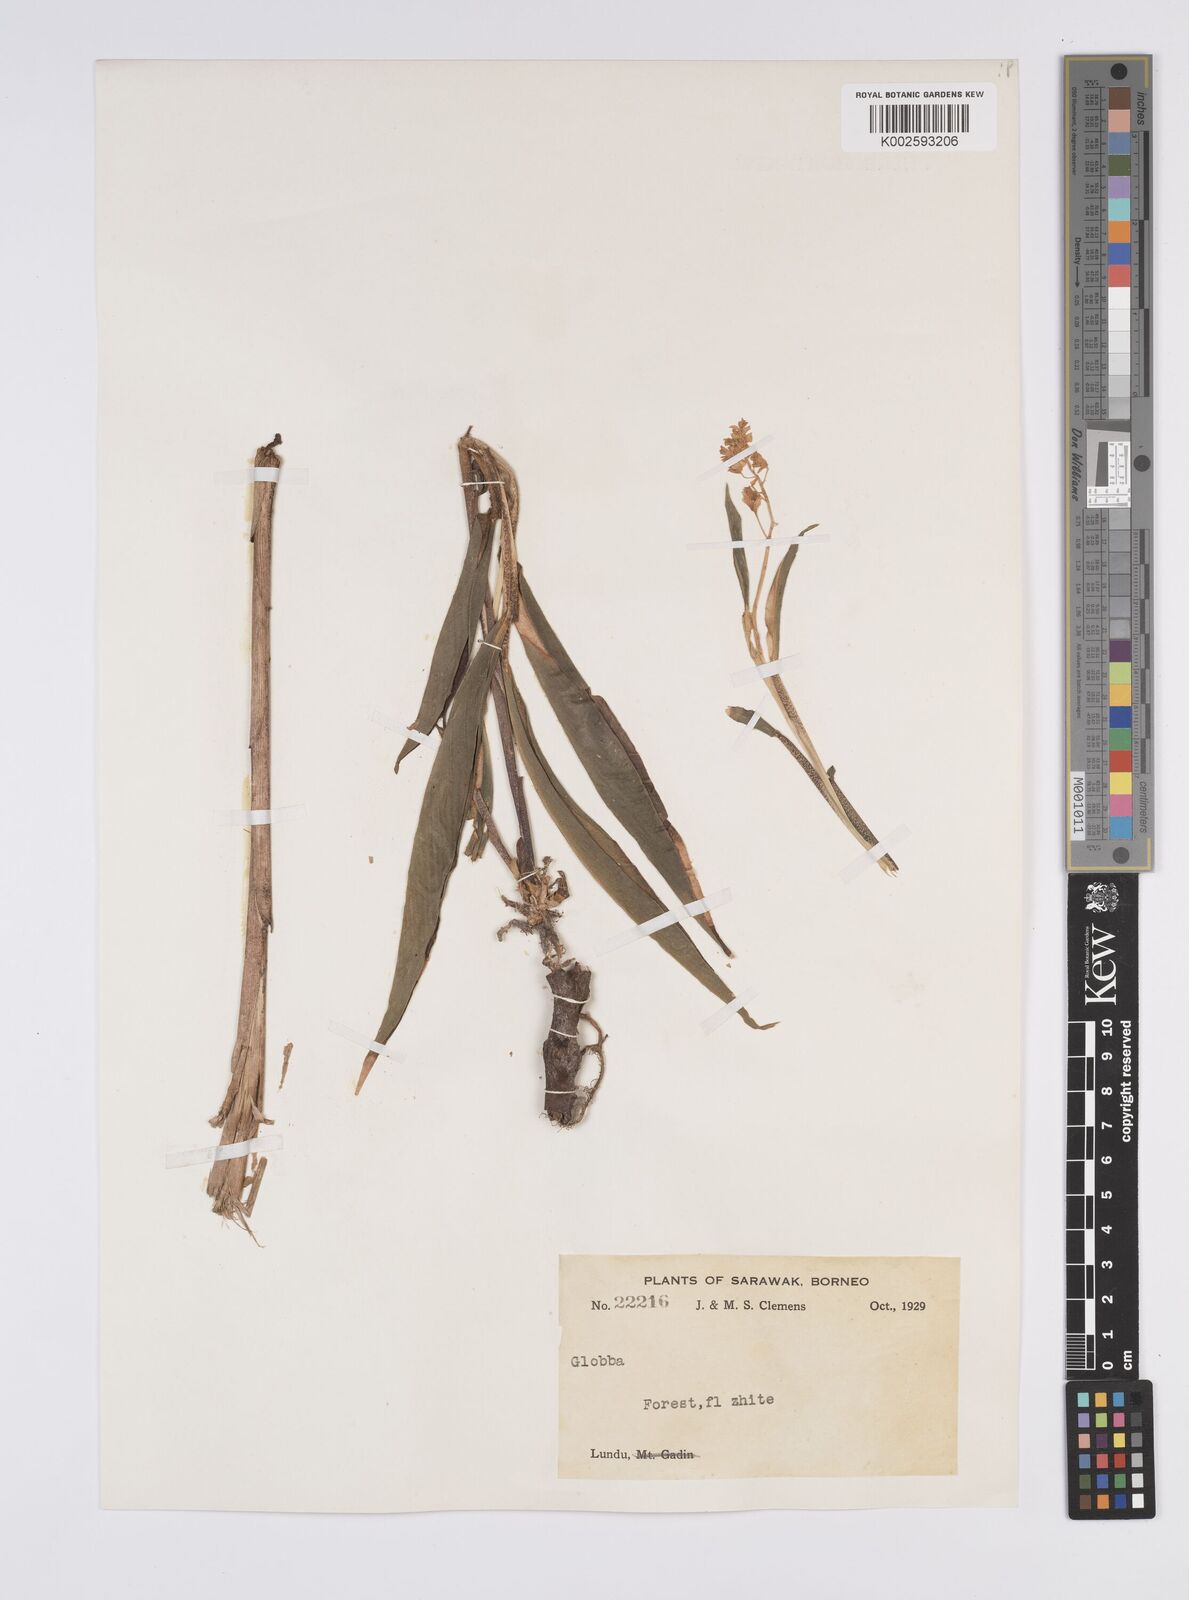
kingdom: Plantae
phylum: Tracheophyta
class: Liliopsida
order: Zingiberales
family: Zingiberaceae
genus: Globba
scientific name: Globba
